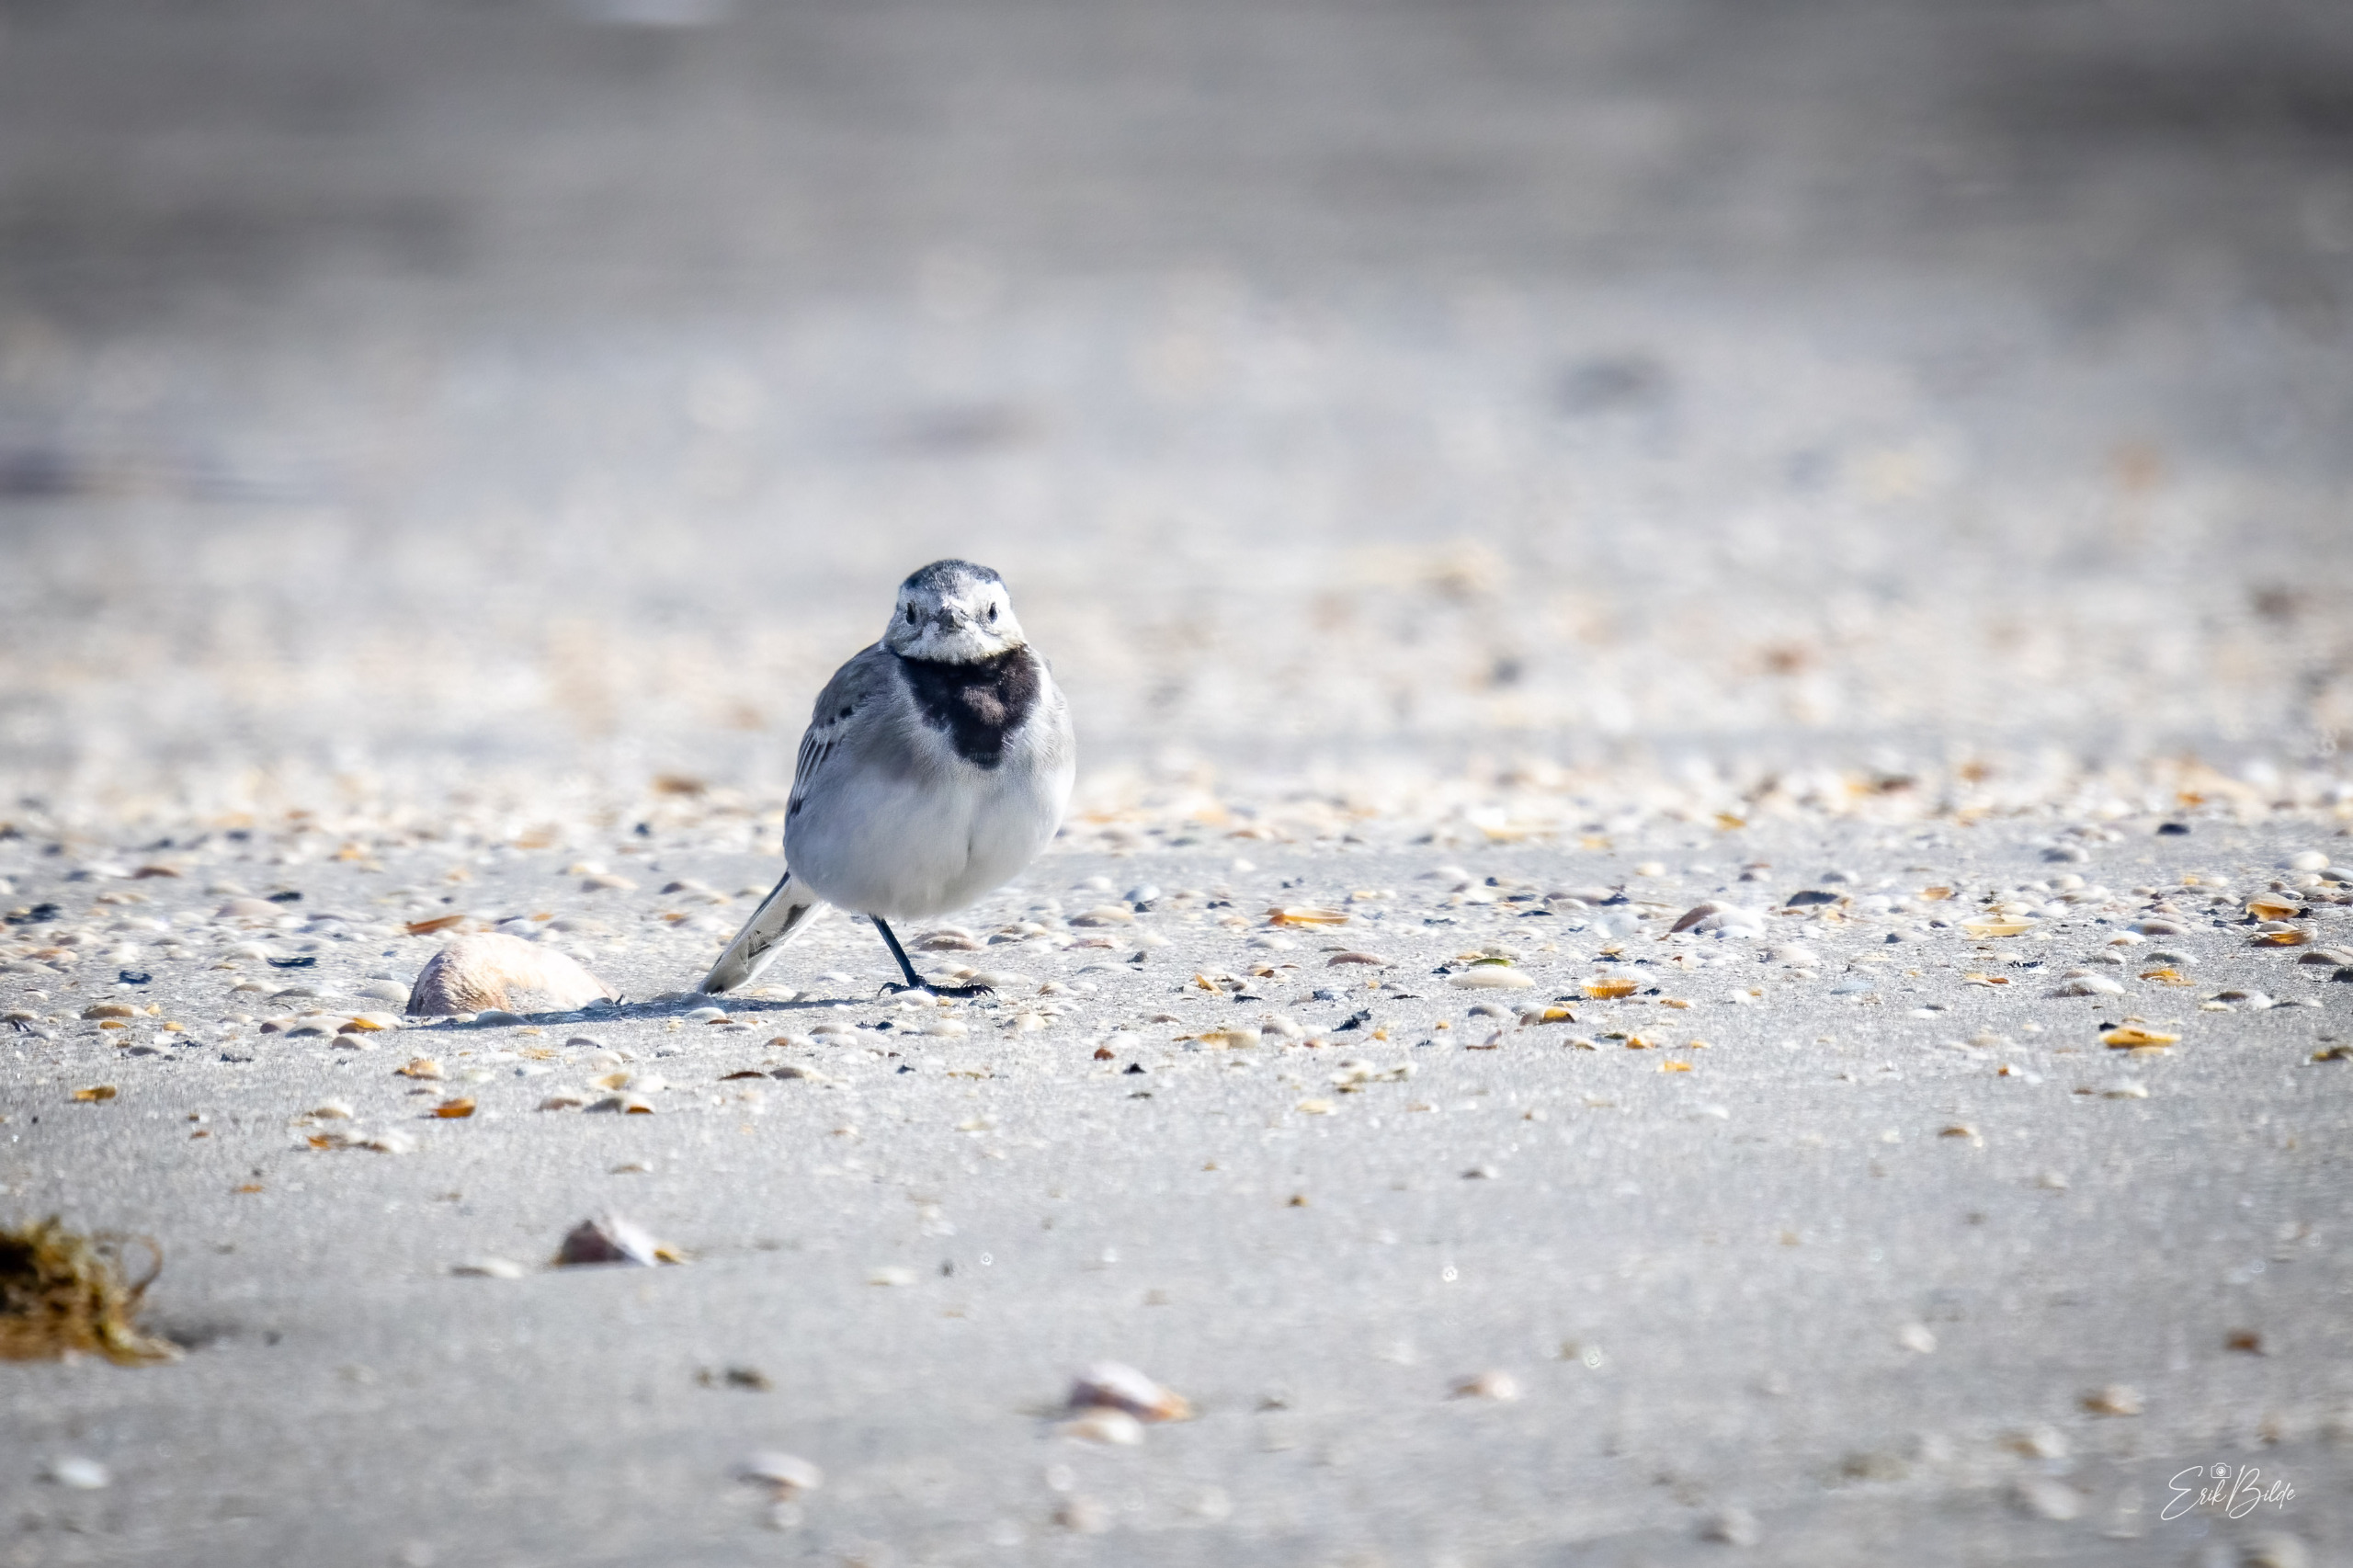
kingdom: Animalia
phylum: Chordata
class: Aves
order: Passeriformes
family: Motacillidae
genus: Motacilla
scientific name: Motacilla alba
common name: Hvid vipstjert
